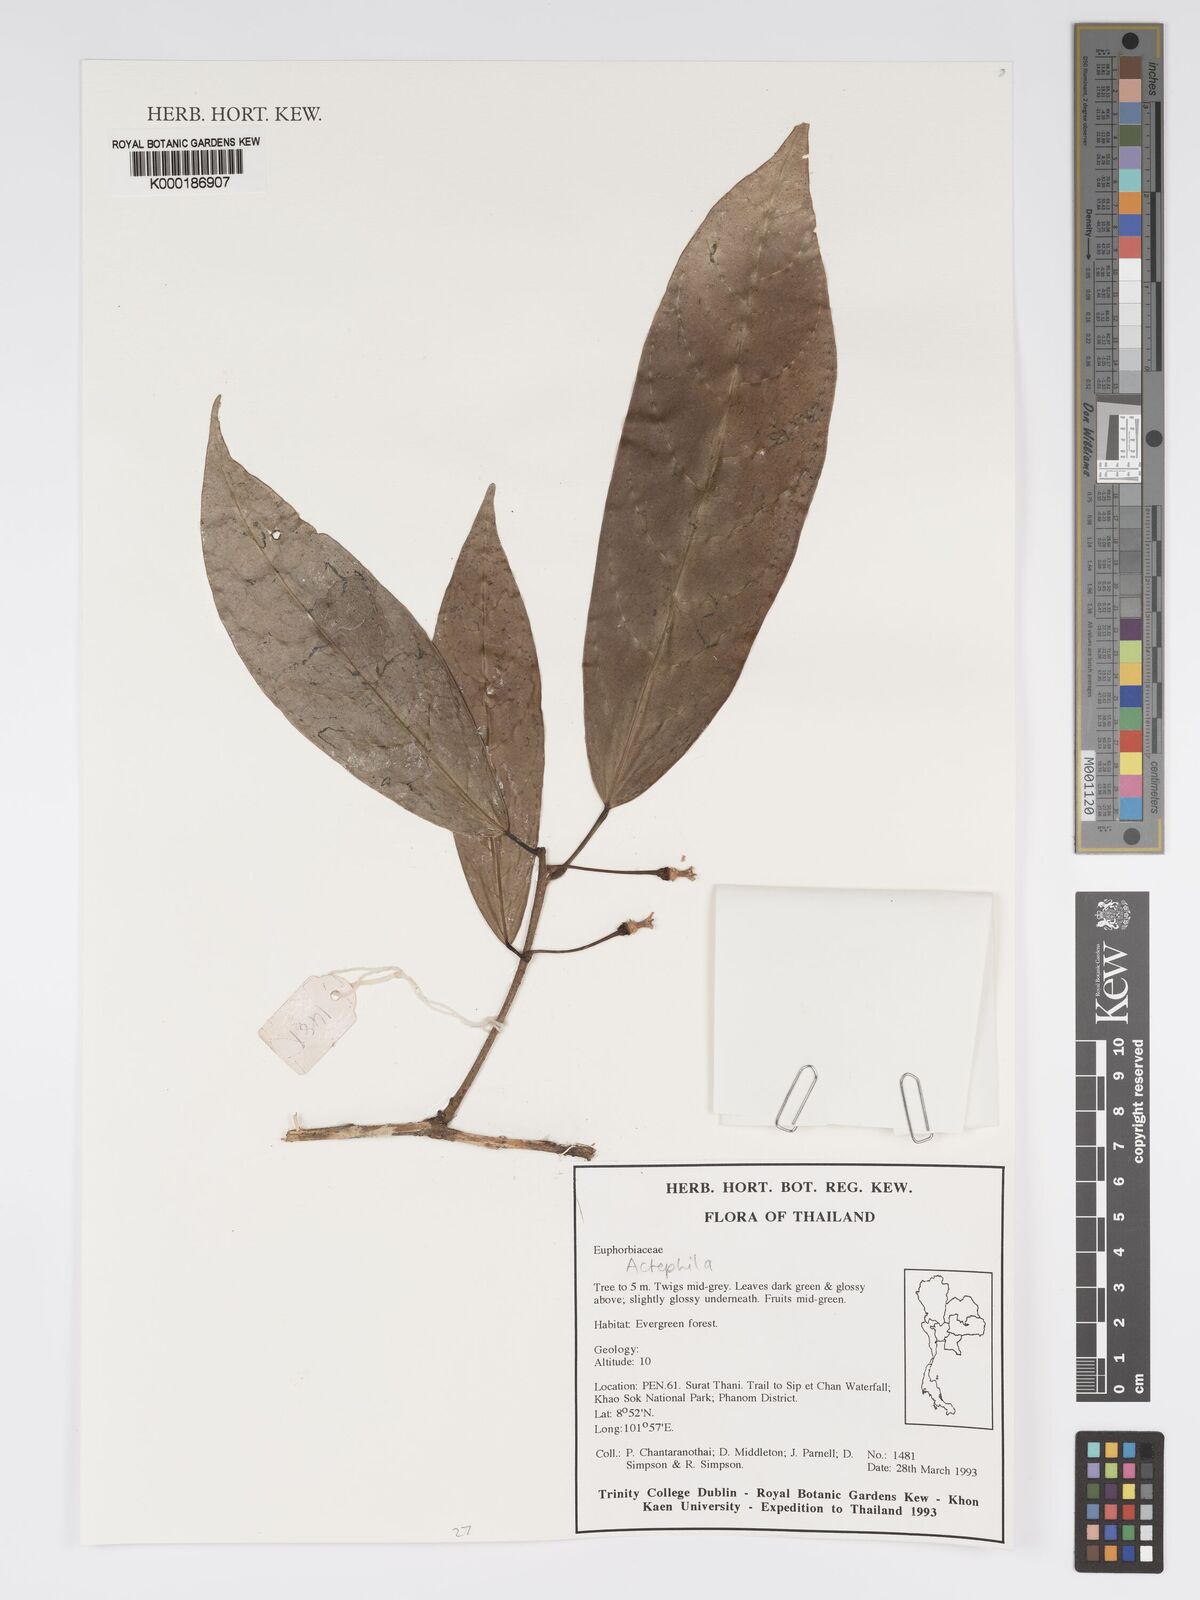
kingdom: Plantae
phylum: Tracheophyta
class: Magnoliopsida
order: Malpighiales
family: Phyllanthaceae
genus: Actephila
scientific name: Actephila
